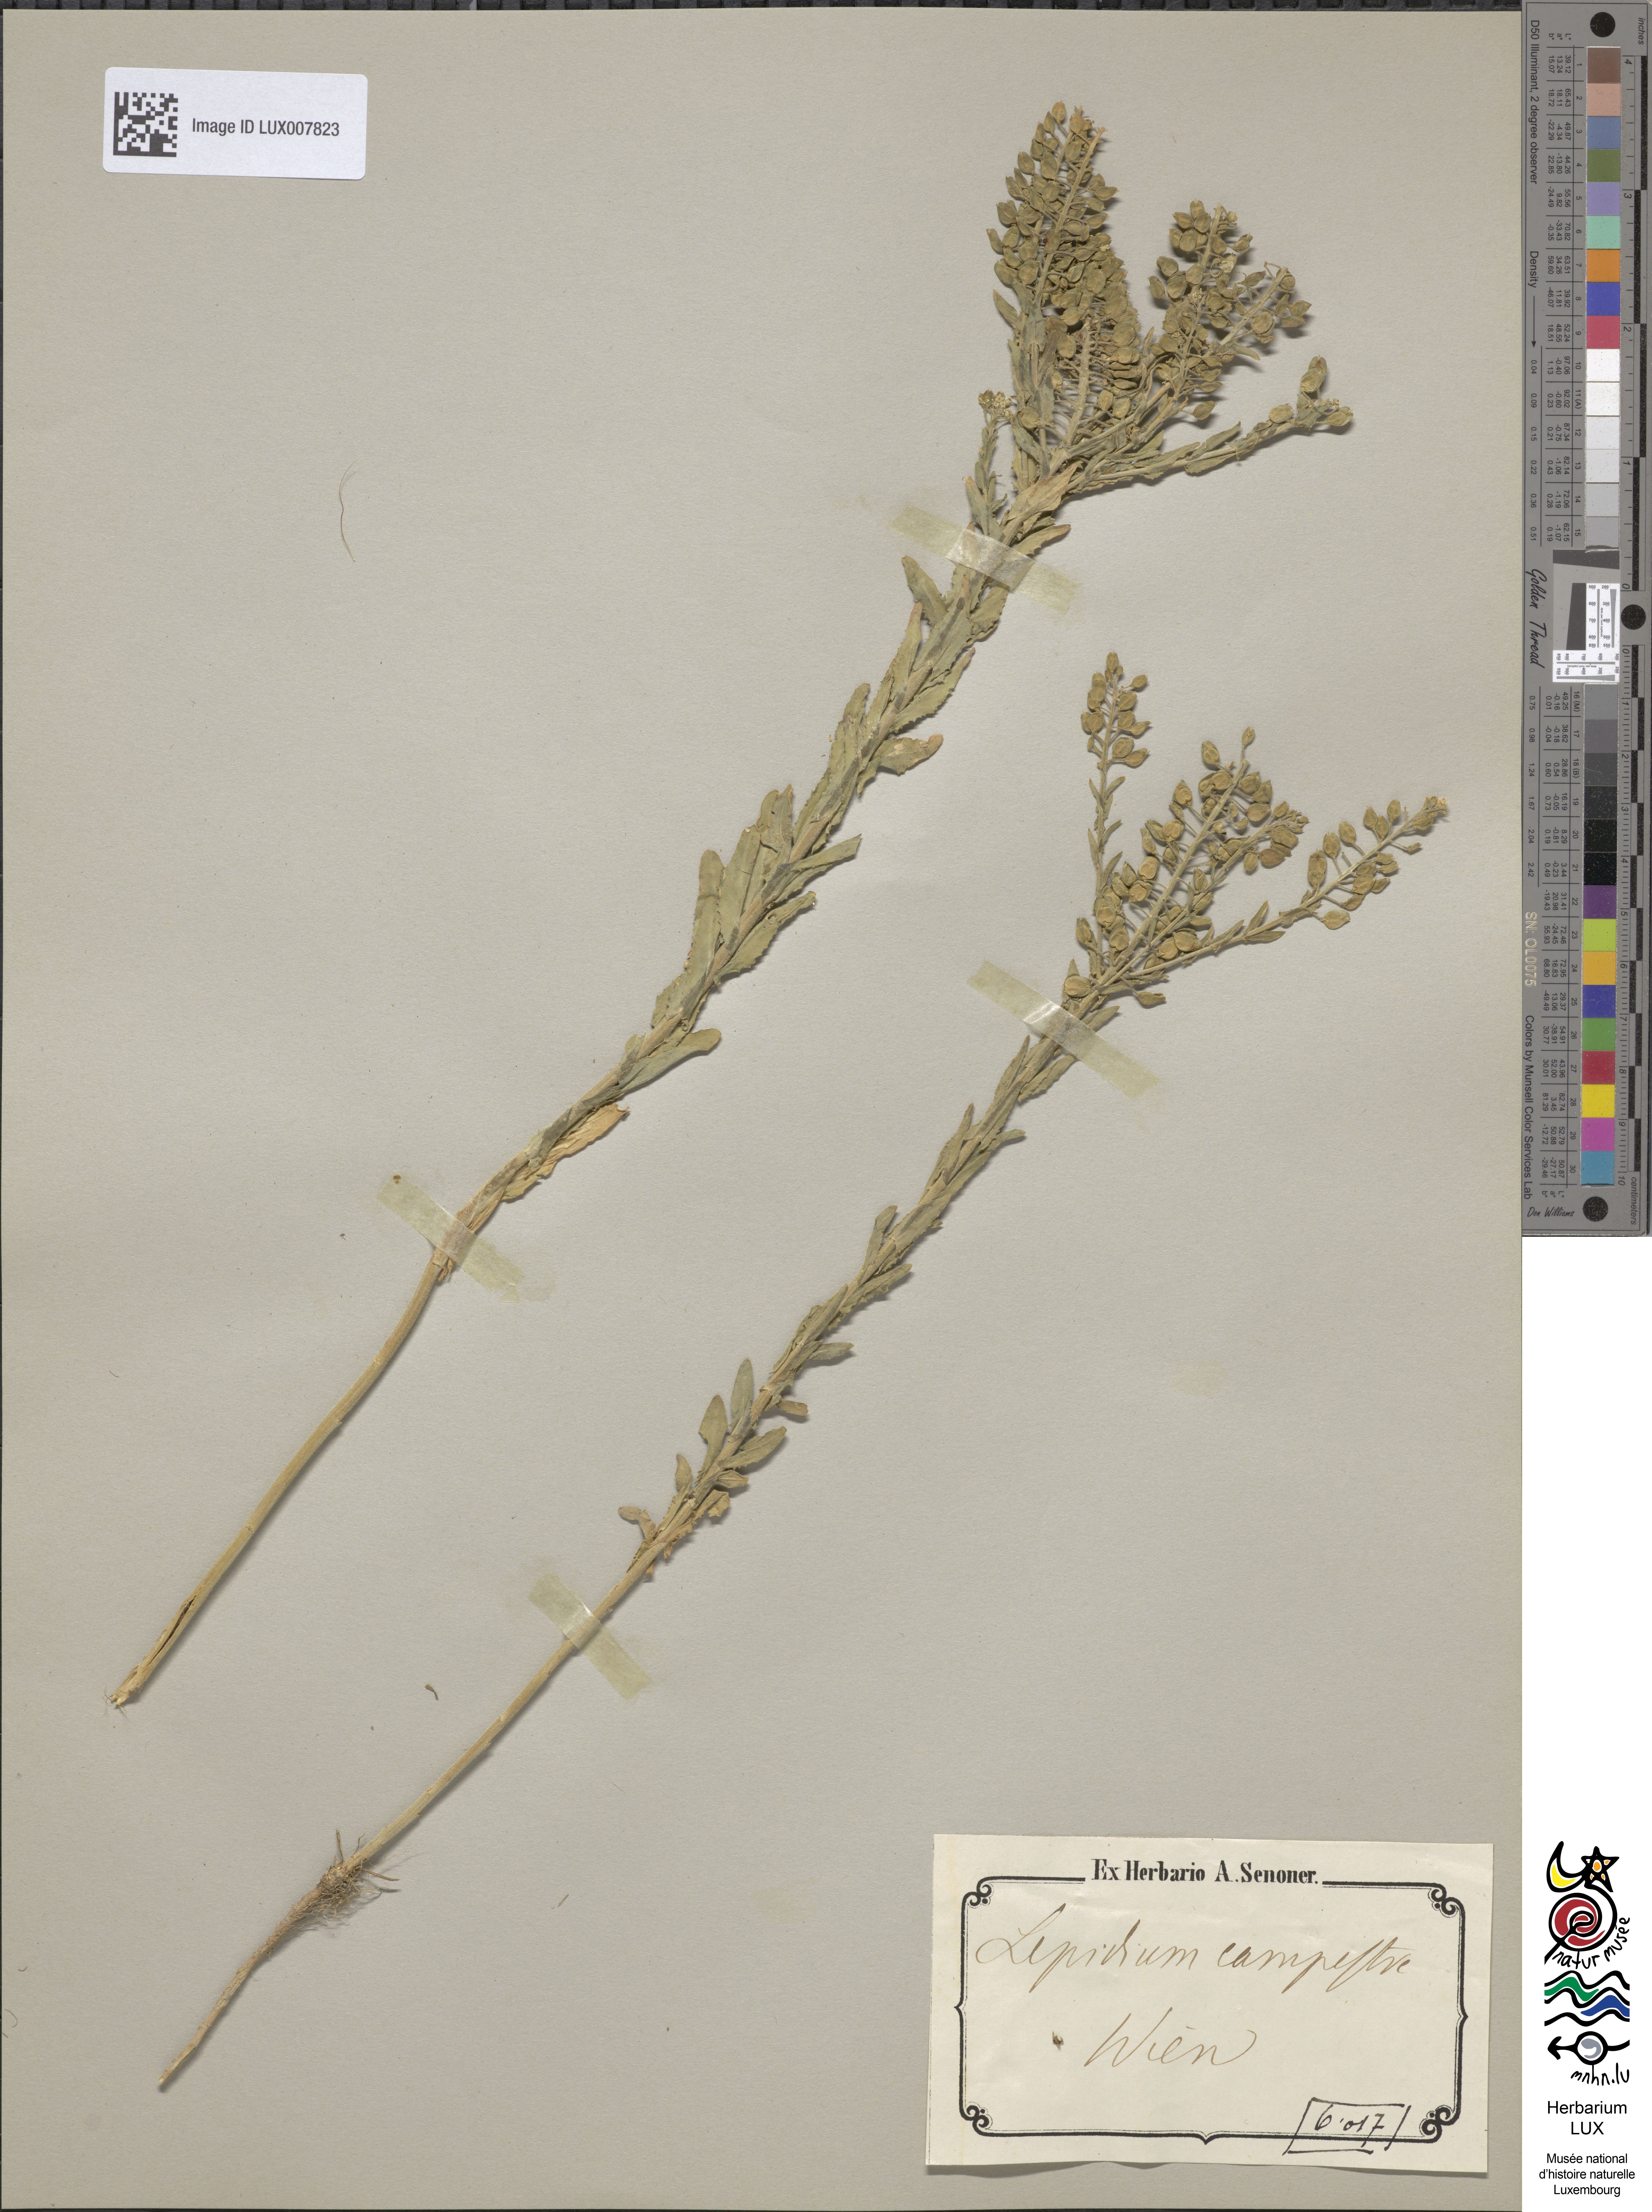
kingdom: Plantae
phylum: Tracheophyta
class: Magnoliopsida
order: Brassicales
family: Brassicaceae
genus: Lepidium
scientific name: Lepidium campestre
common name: Field pepperwort
